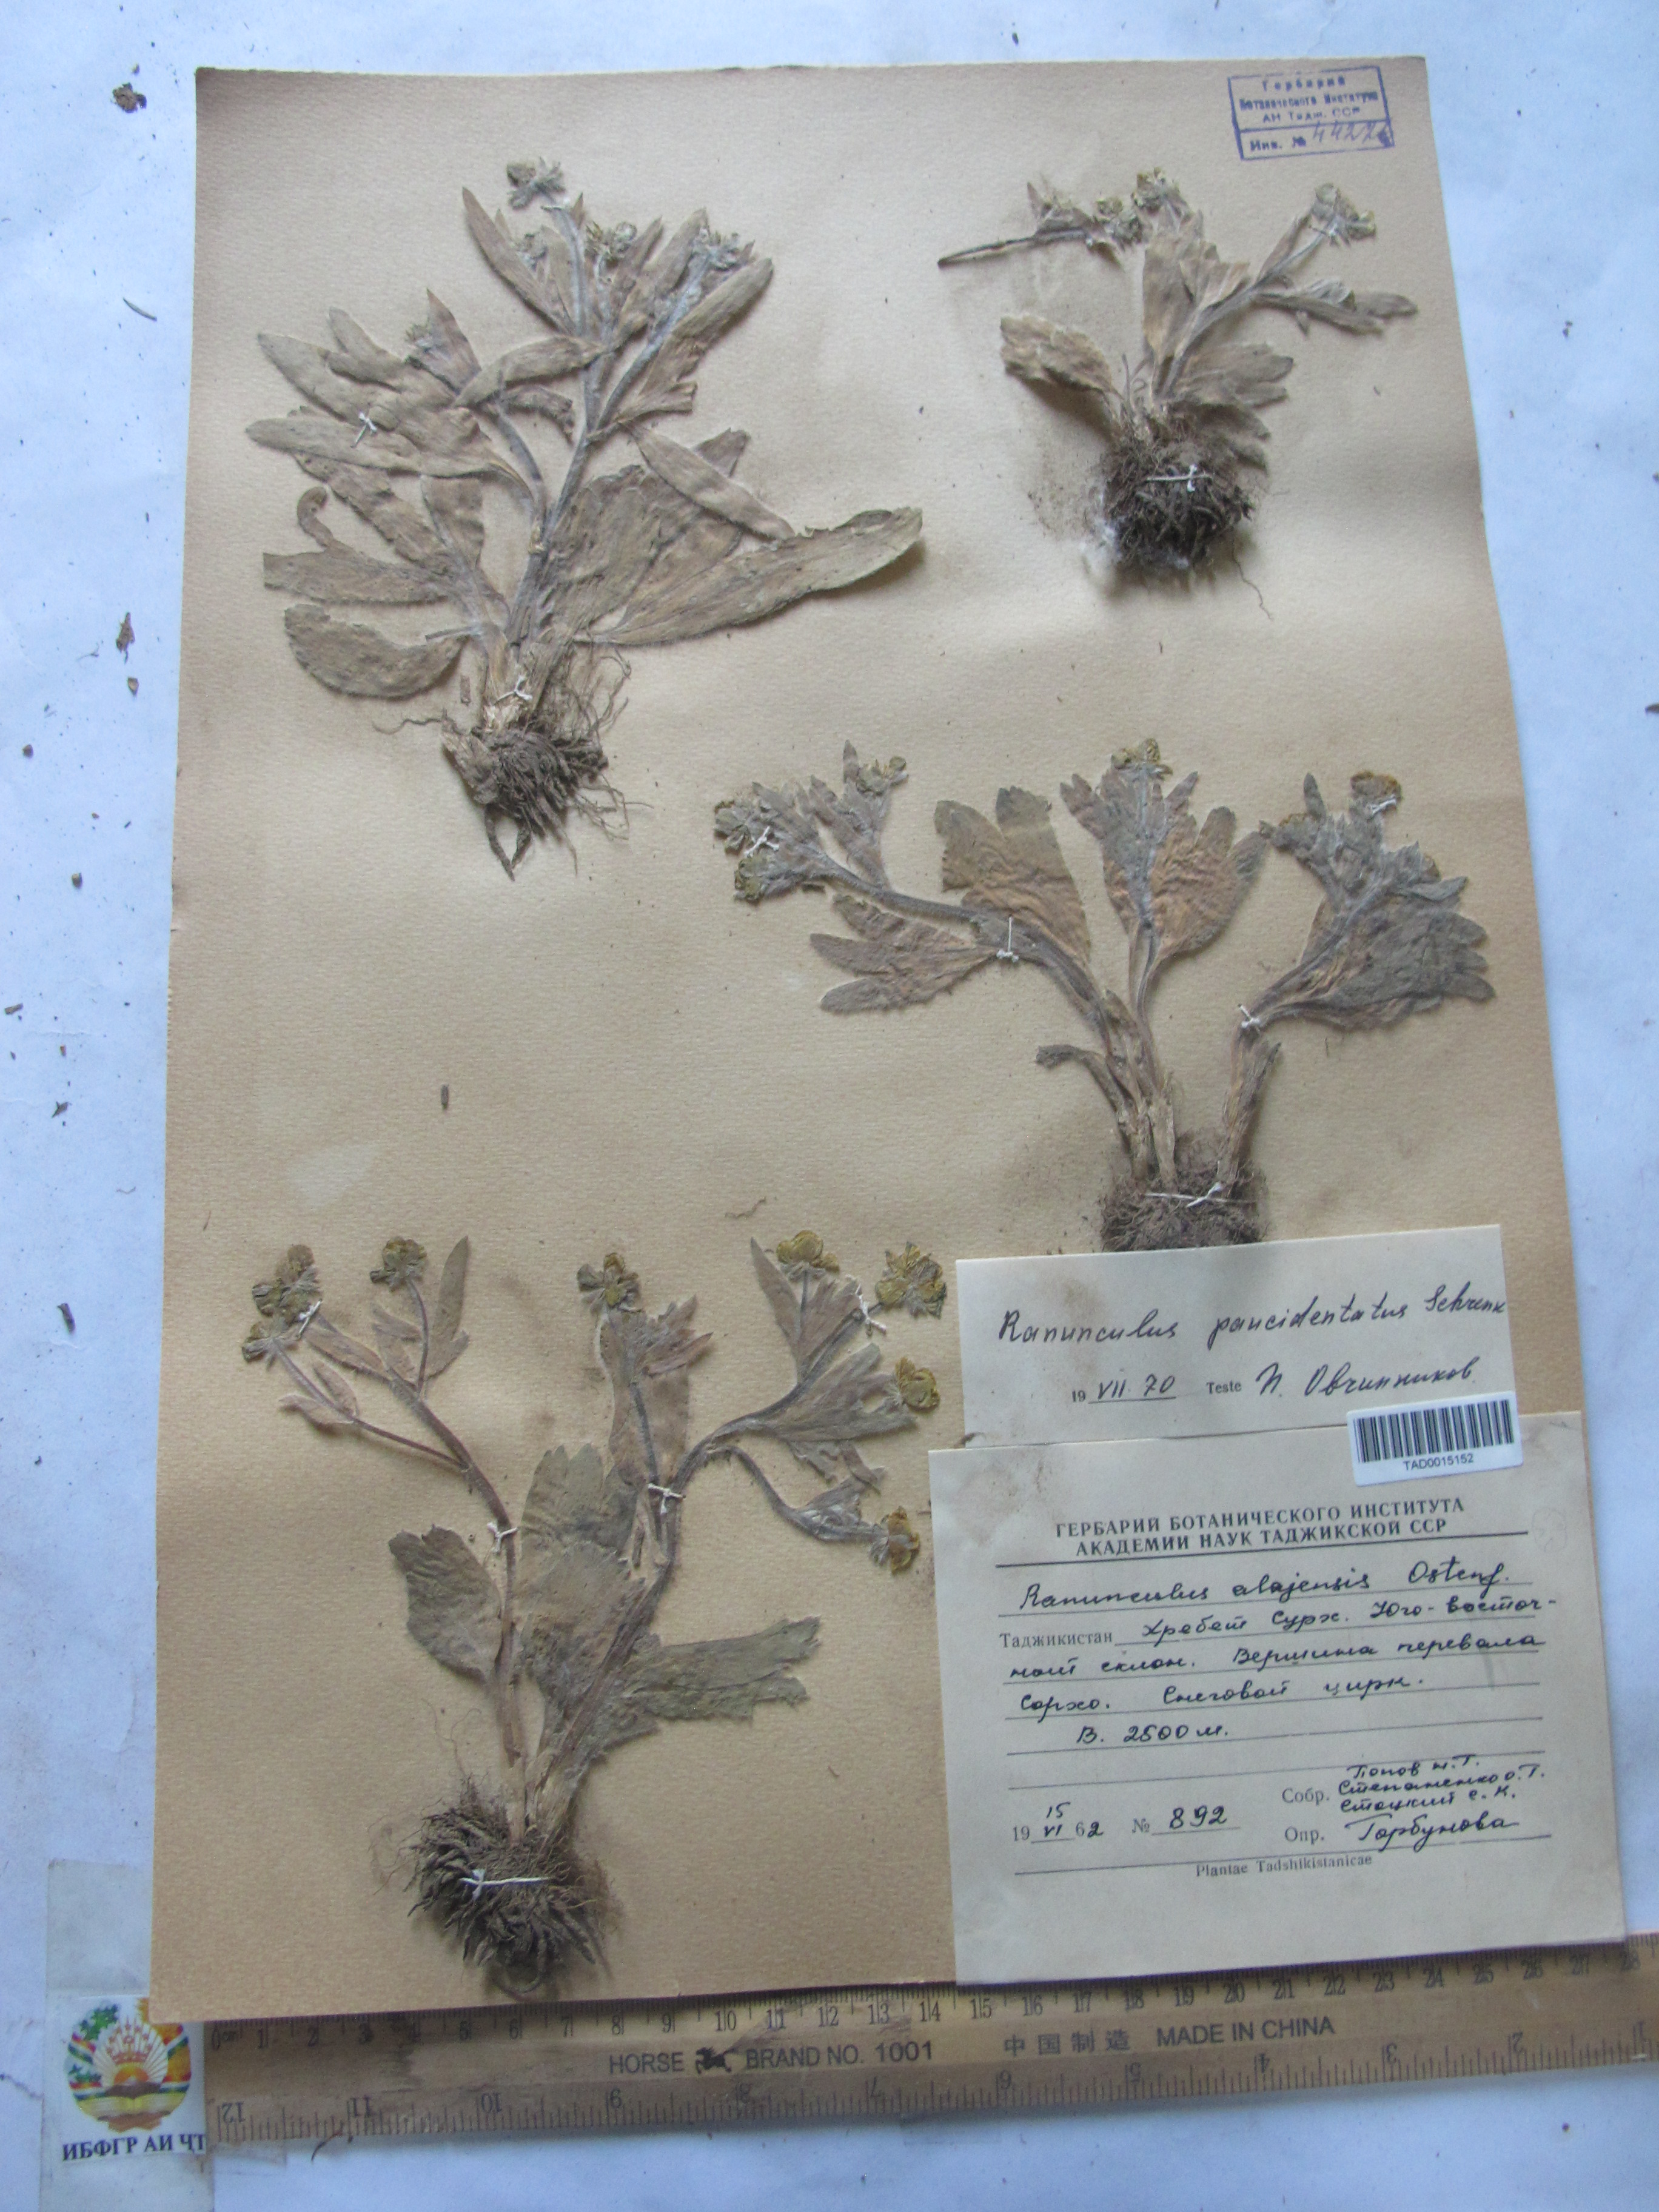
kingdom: Plantae
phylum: Tracheophyta
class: Magnoliopsida
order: Ranunculales
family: Ranunculaceae
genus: Ranunculus
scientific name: Ranunculus paucidentatus
